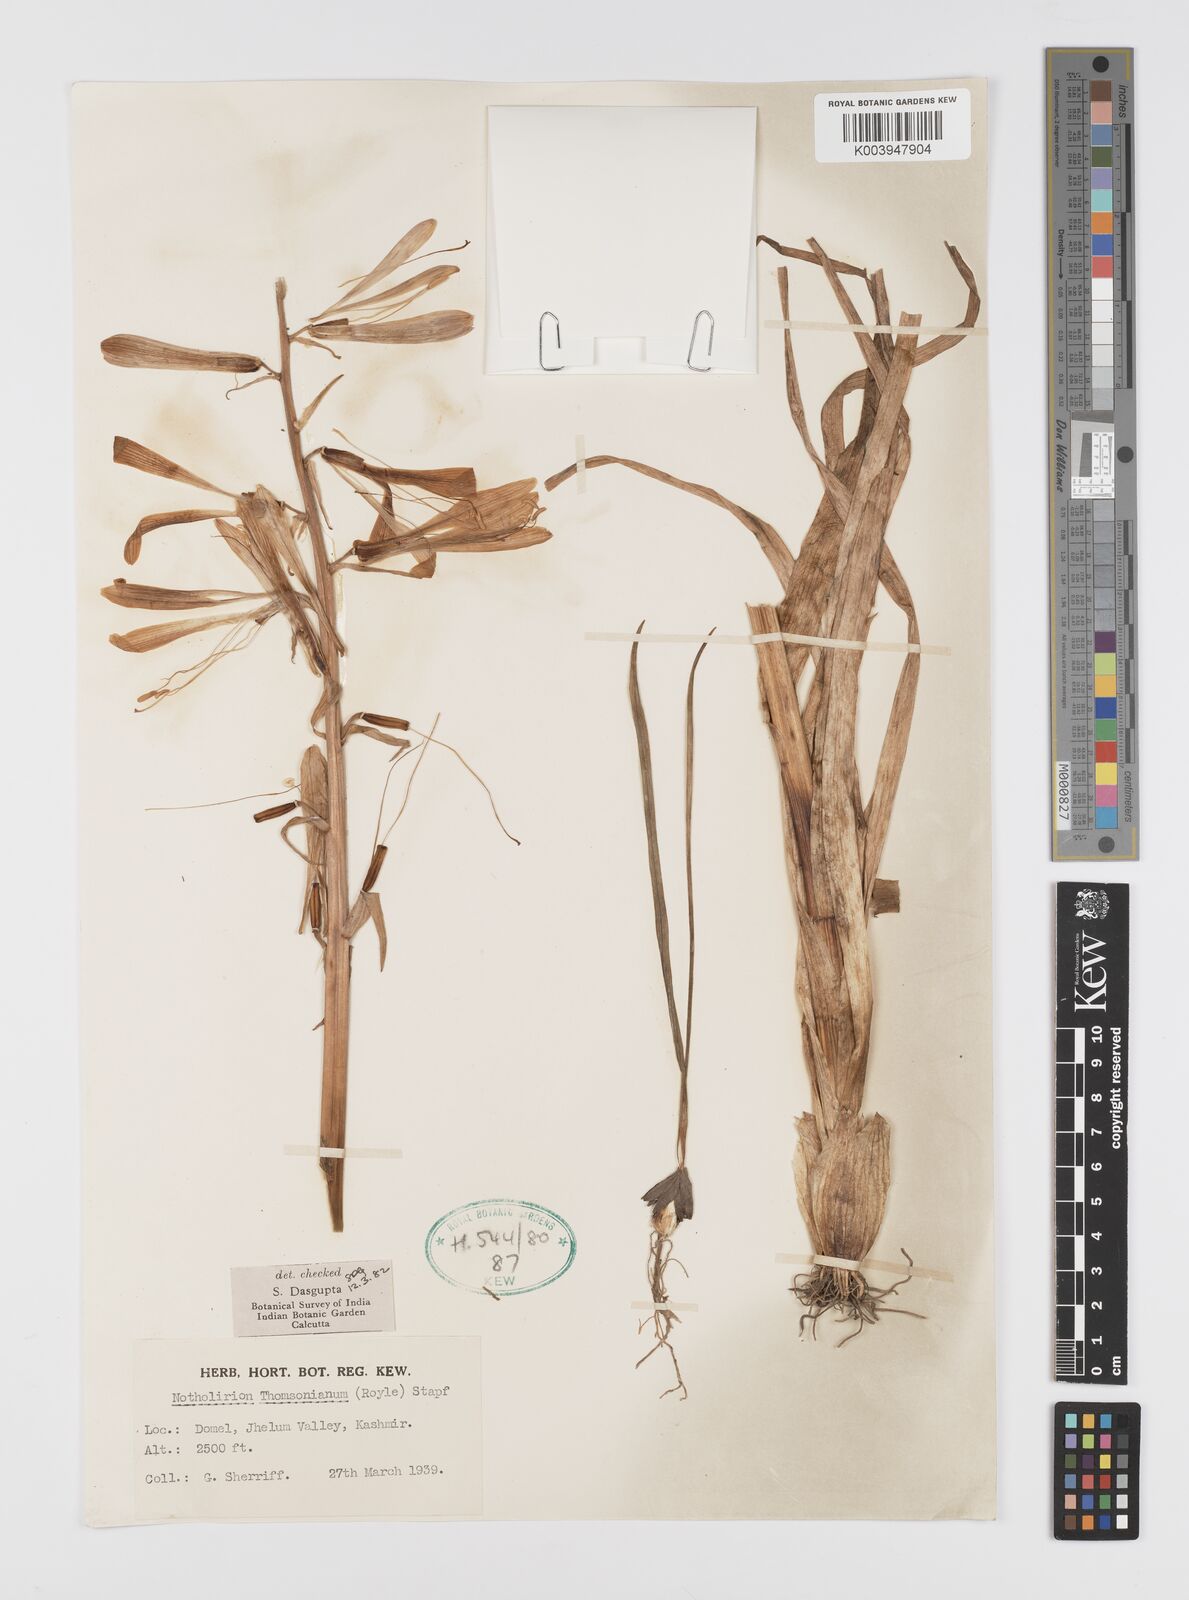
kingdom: Plantae
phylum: Tracheophyta
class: Liliopsida
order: Liliales
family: Liliaceae
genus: Notholirion
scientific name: Notholirion
